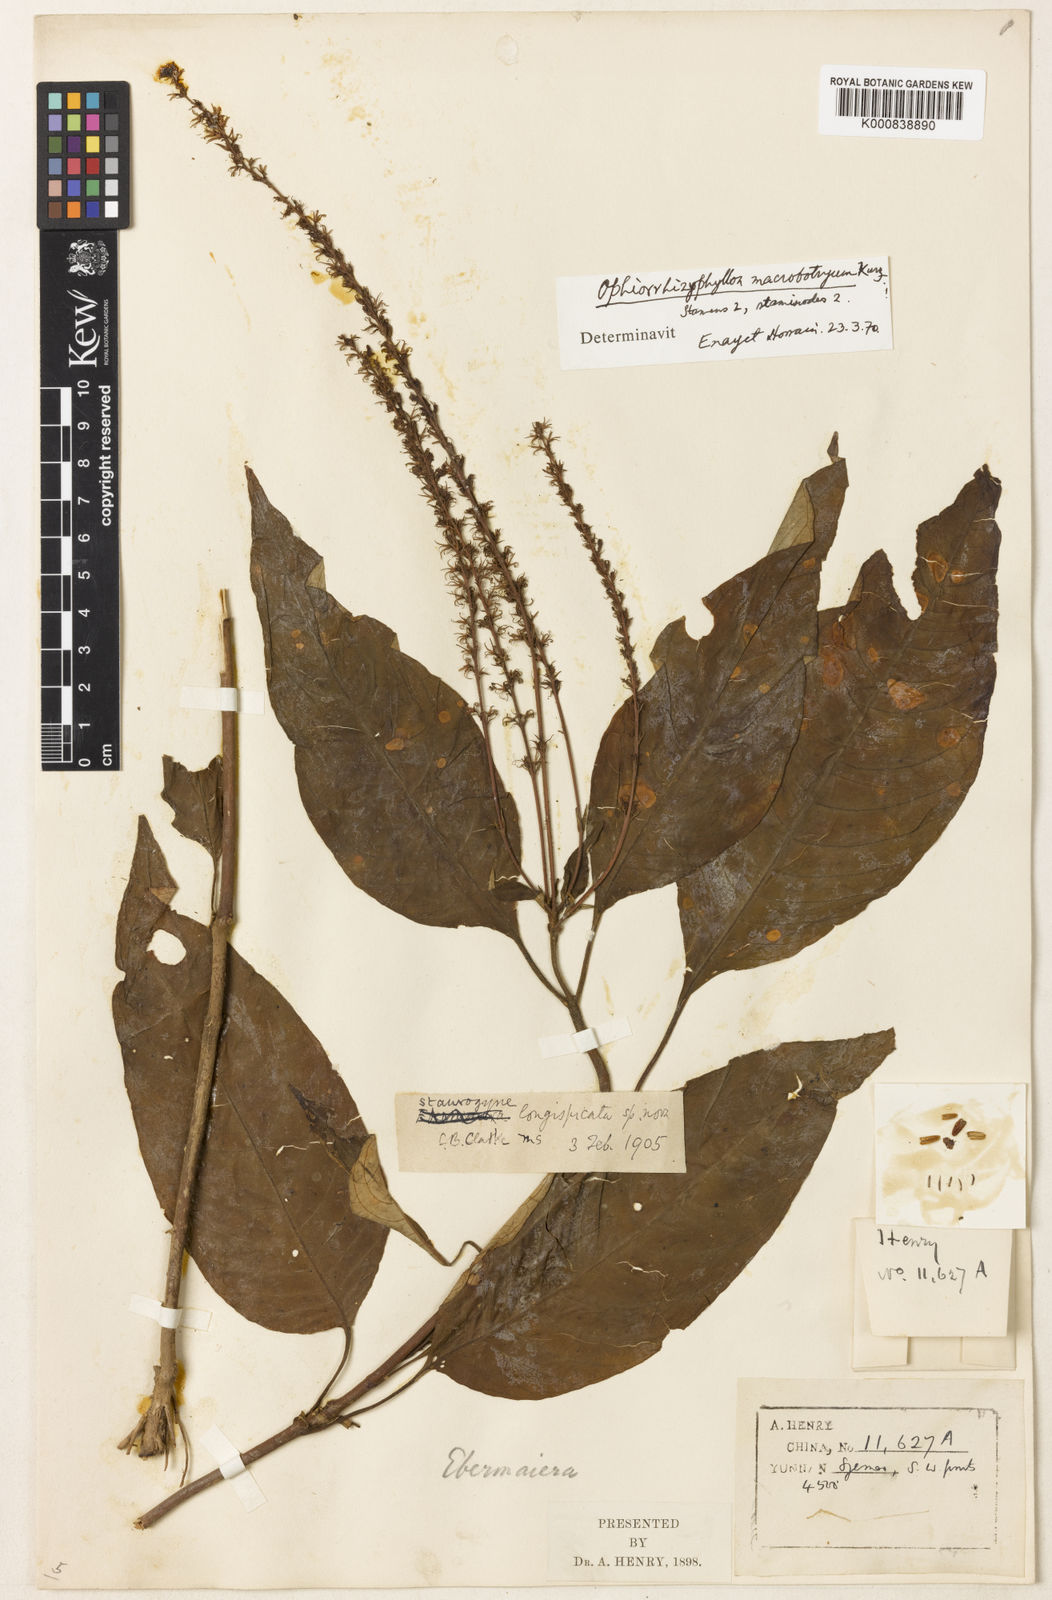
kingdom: Plantae
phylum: Tracheophyta
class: Magnoliopsida
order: Lamiales
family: Acanthaceae
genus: Staurogyne
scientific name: Staurogyne
